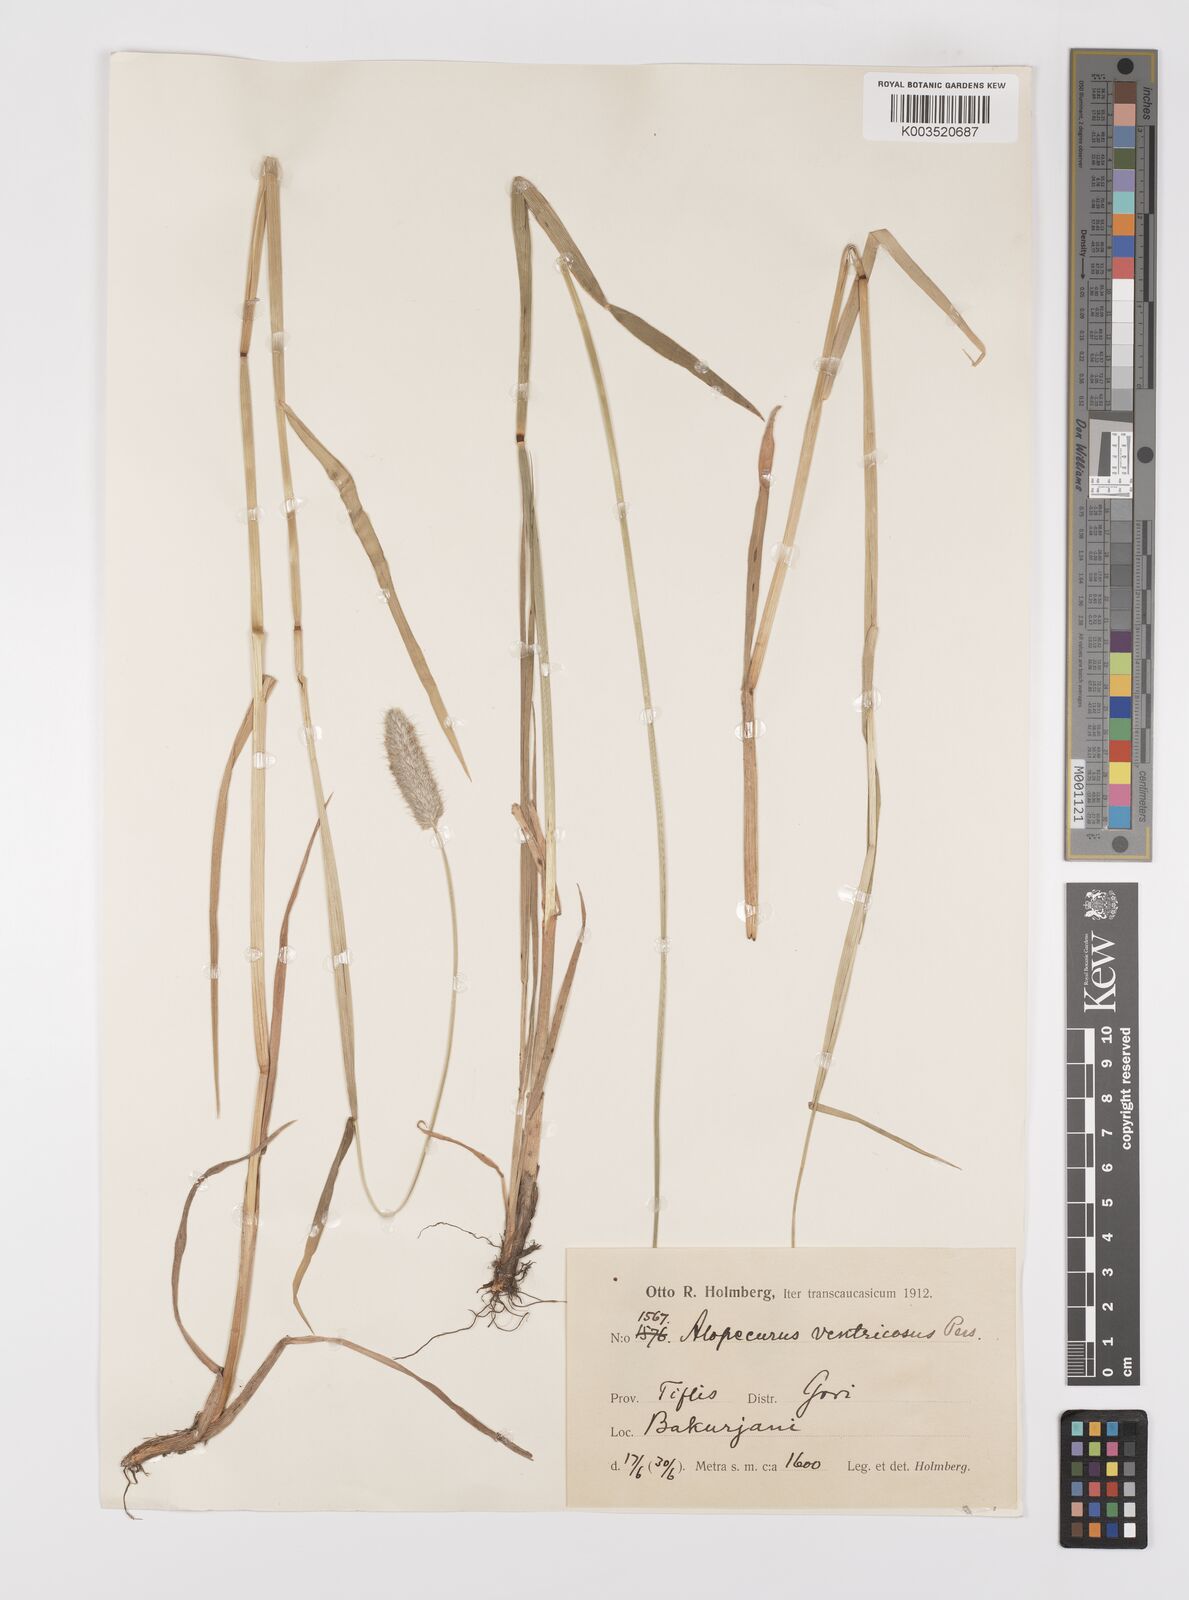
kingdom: Plantae
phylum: Tracheophyta
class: Liliopsida
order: Poales
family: Poaceae
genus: Alopecurus
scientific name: Alopecurus arundinaceus
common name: Creeping meadow foxtail
